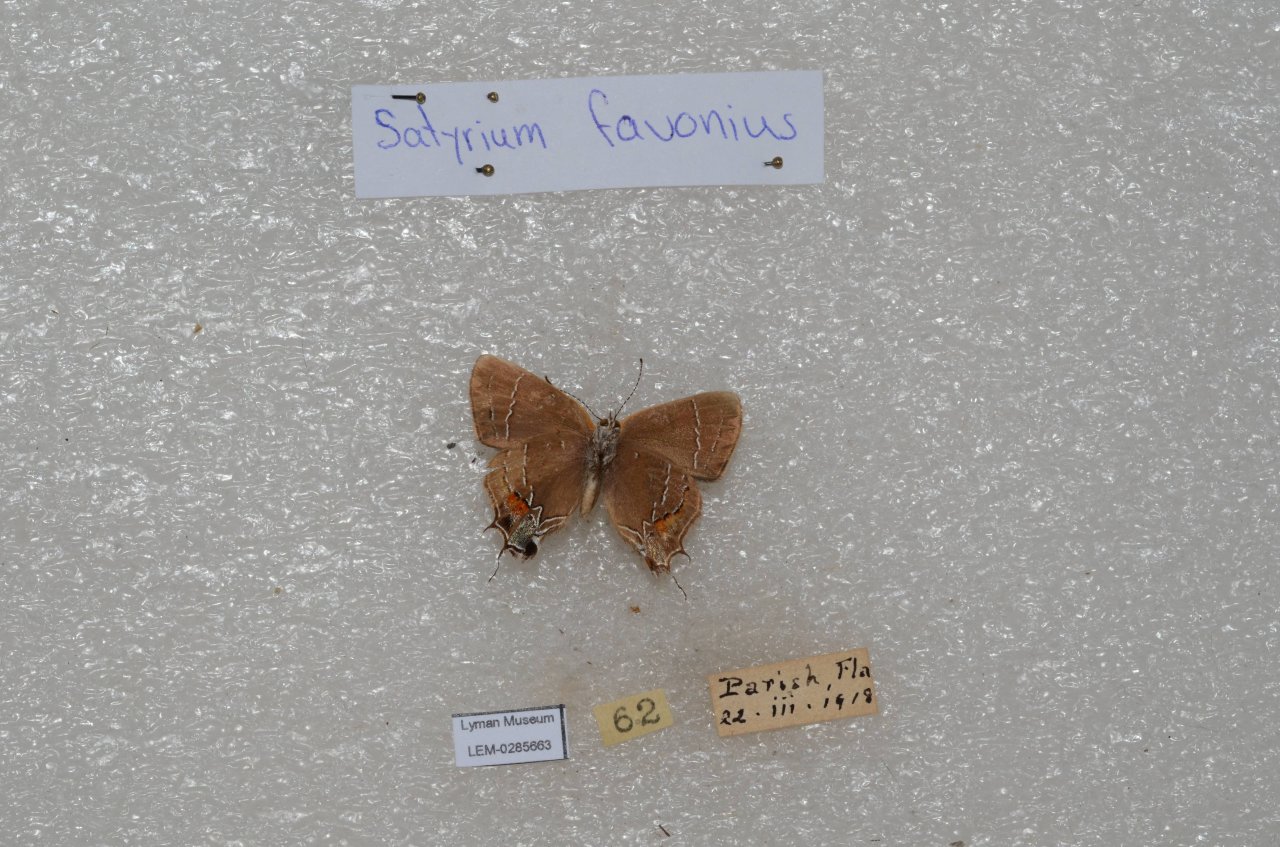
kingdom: Animalia
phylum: Arthropoda
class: Insecta
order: Lepidoptera
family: Lycaenidae
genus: Fixsenia
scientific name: Fixsenia favonius
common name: Oak Hairstreak
